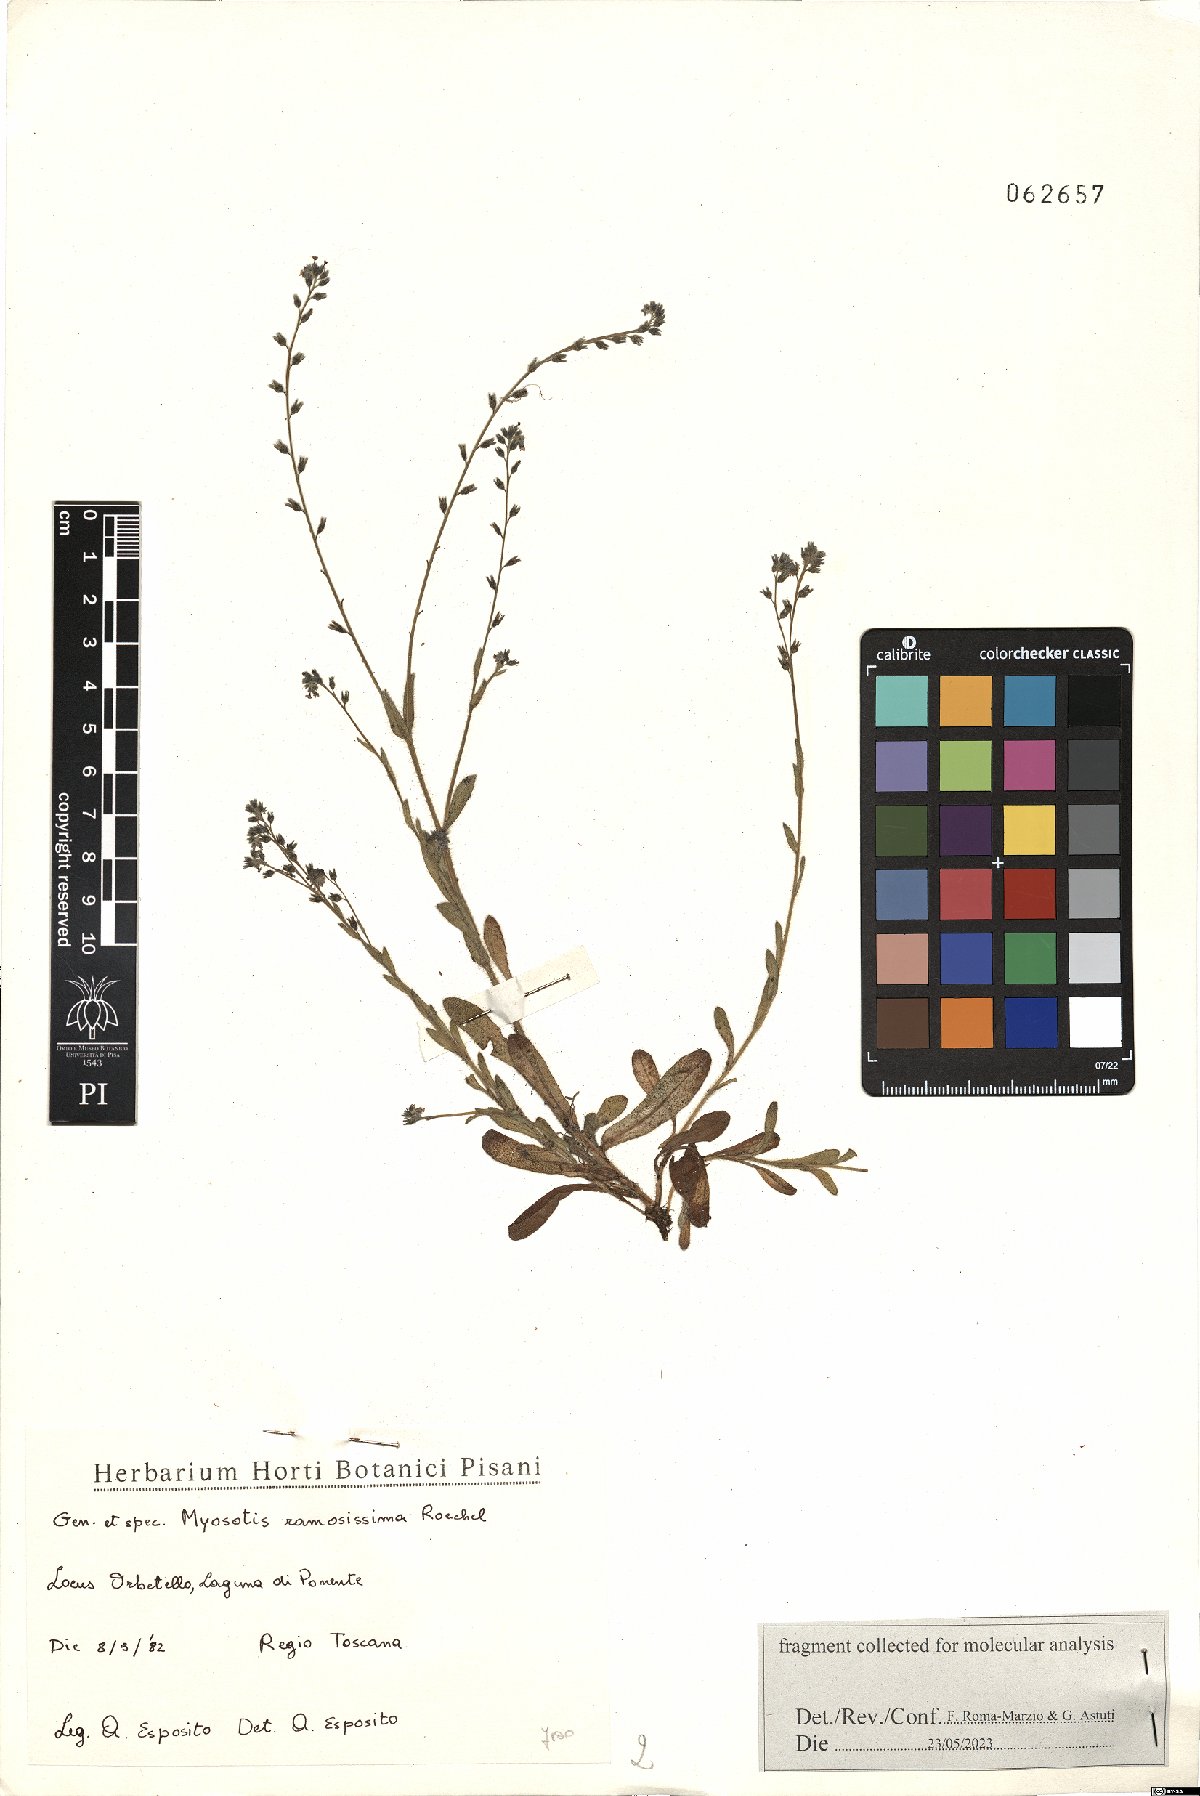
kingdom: Plantae
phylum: Tracheophyta
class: Magnoliopsida
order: Boraginales
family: Boraginaceae
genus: Myosotis
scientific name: Myosotis ramosissima
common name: Early forget-me-not
